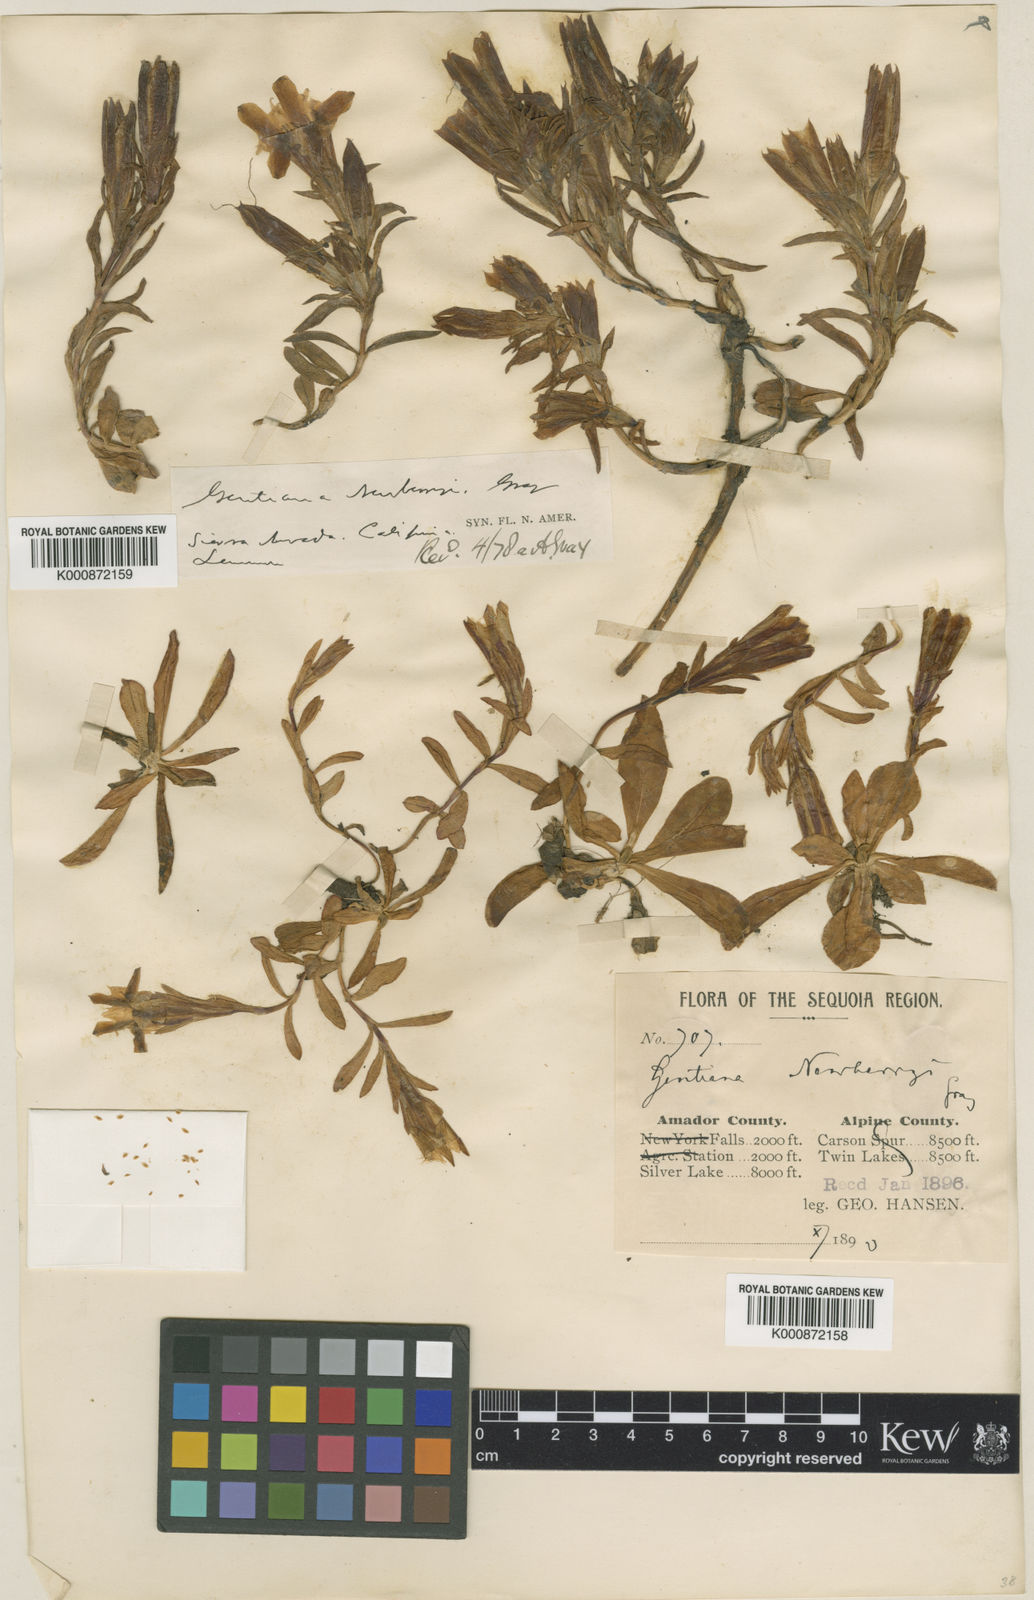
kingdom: Plantae
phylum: Tracheophyta
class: Magnoliopsida
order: Gentianales
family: Gentianaceae
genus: Gentiana
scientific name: Gentiana newberryi
